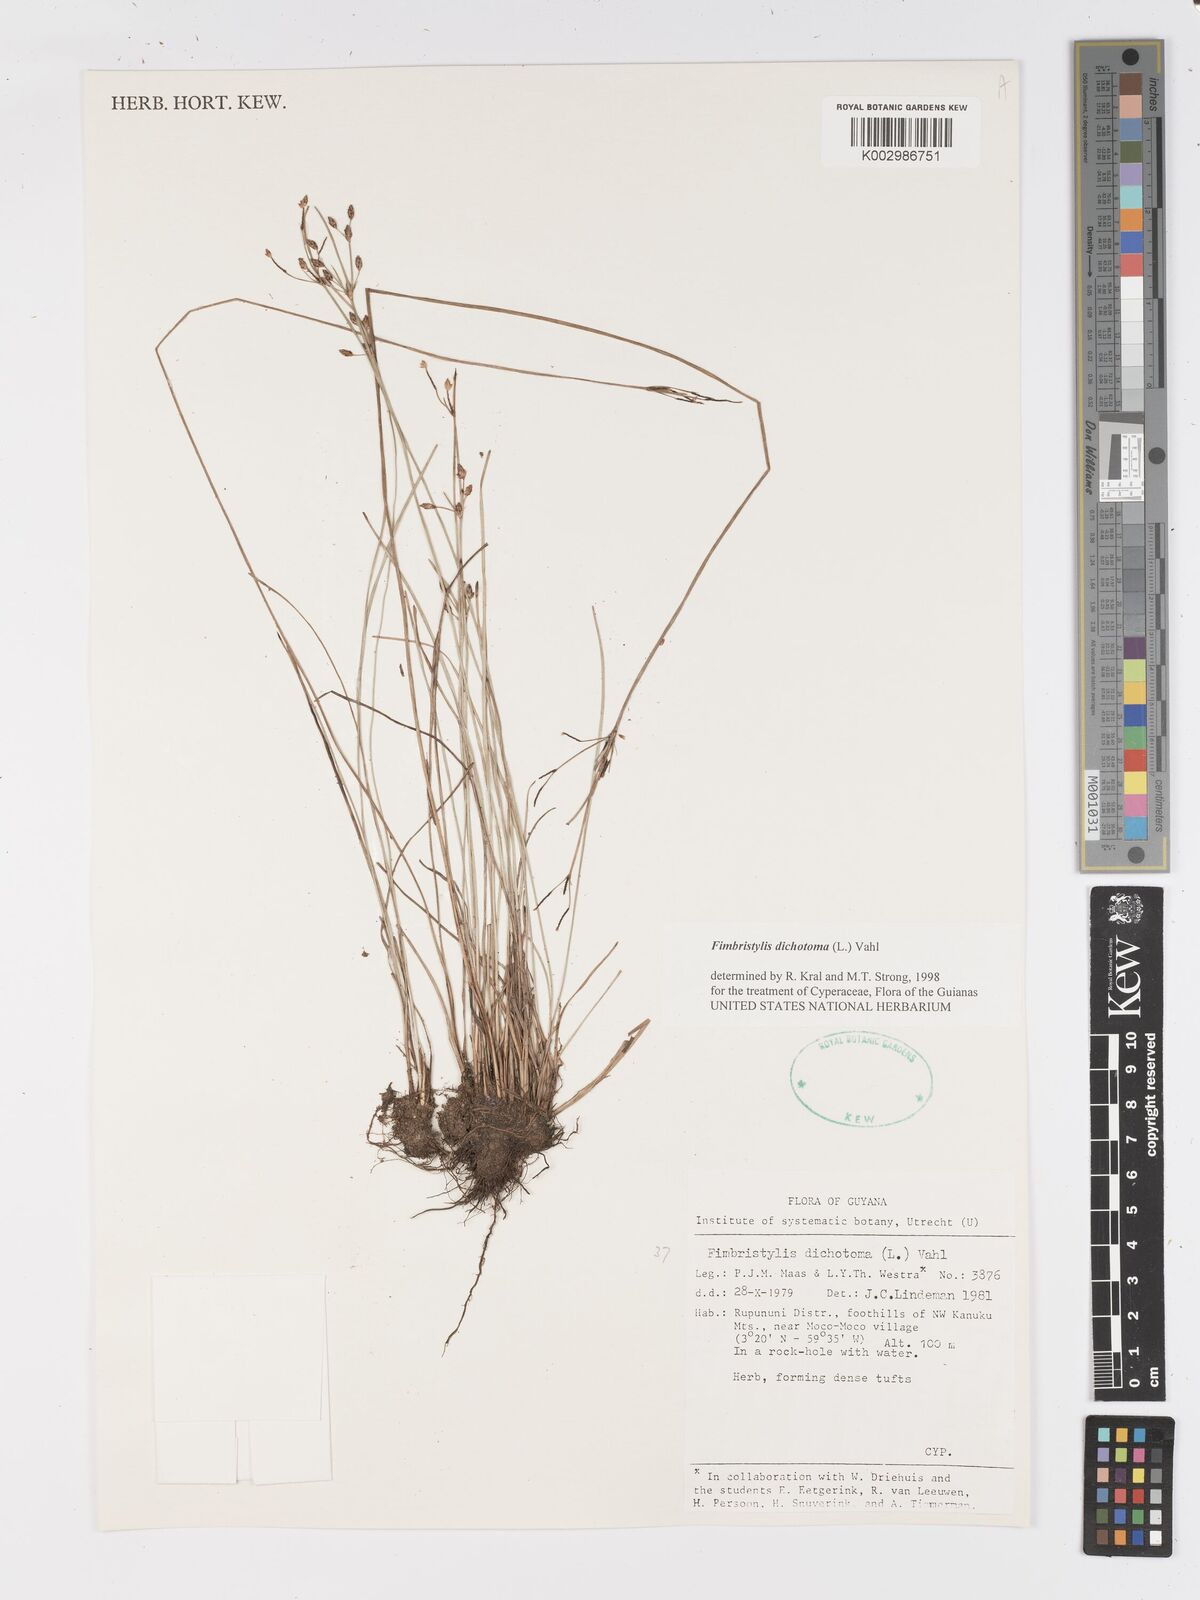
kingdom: Plantae
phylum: Tracheophyta
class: Liliopsida
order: Poales
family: Cyperaceae
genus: Fimbristylis
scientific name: Fimbristylis dichotoma
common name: Forked fimbry
